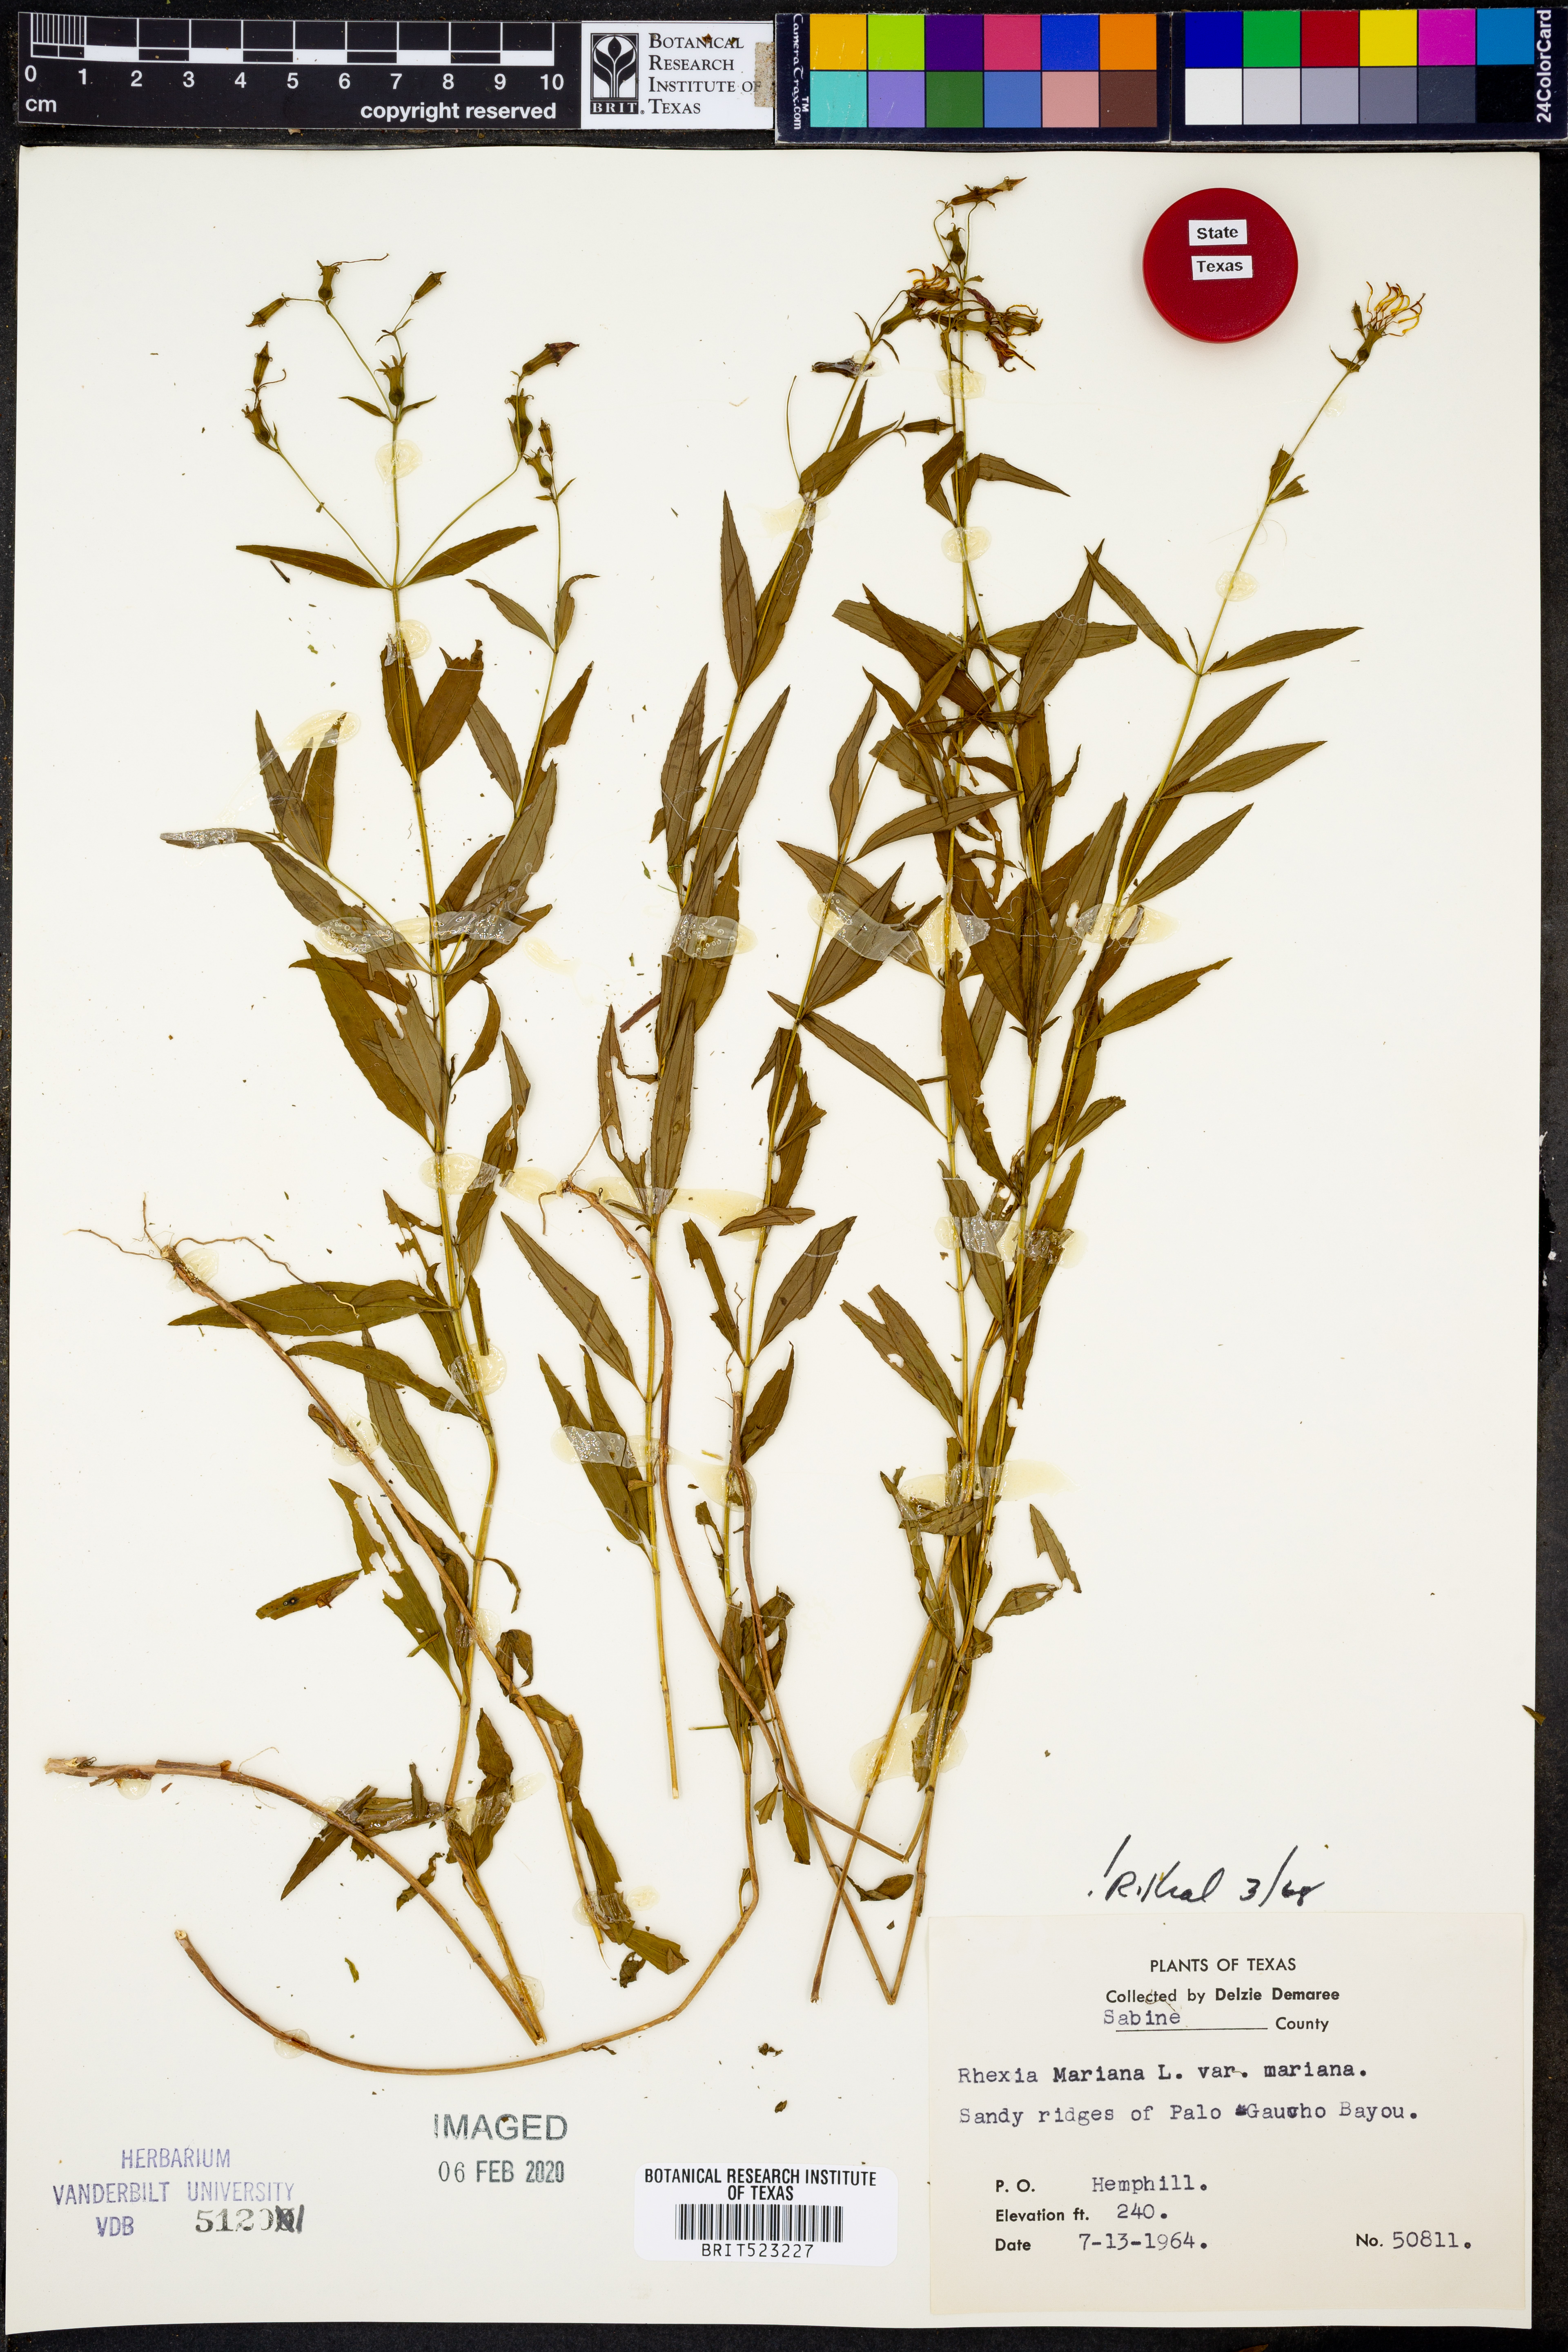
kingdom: Plantae
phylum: Tracheophyta
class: Magnoliopsida
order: Myrtales
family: Melastomataceae
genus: Rhexia
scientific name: Rhexia mariana
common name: Dull meadow-pitcher
